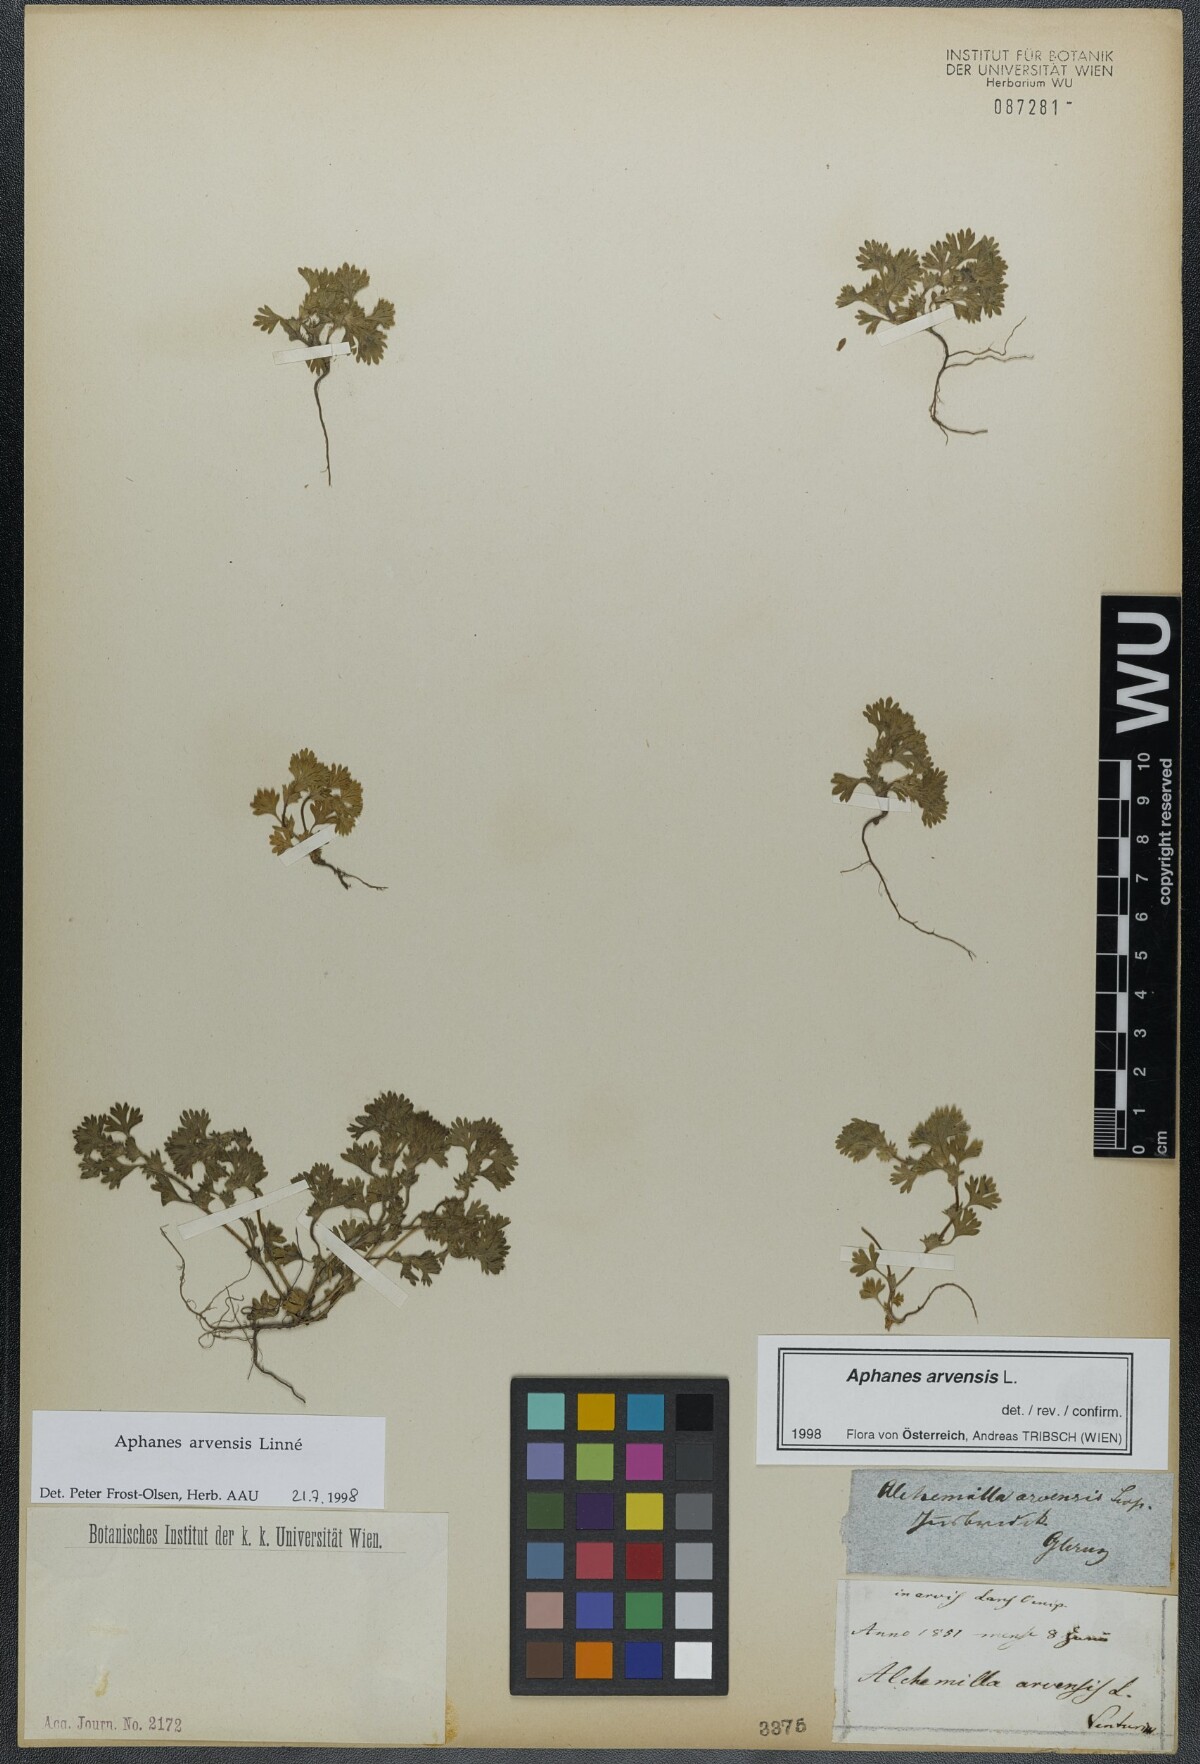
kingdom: Plantae
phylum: Tracheophyta
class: Magnoliopsida
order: Rosales
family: Rosaceae
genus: Aphanes
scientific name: Aphanes arvensis
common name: Parsley-piert
